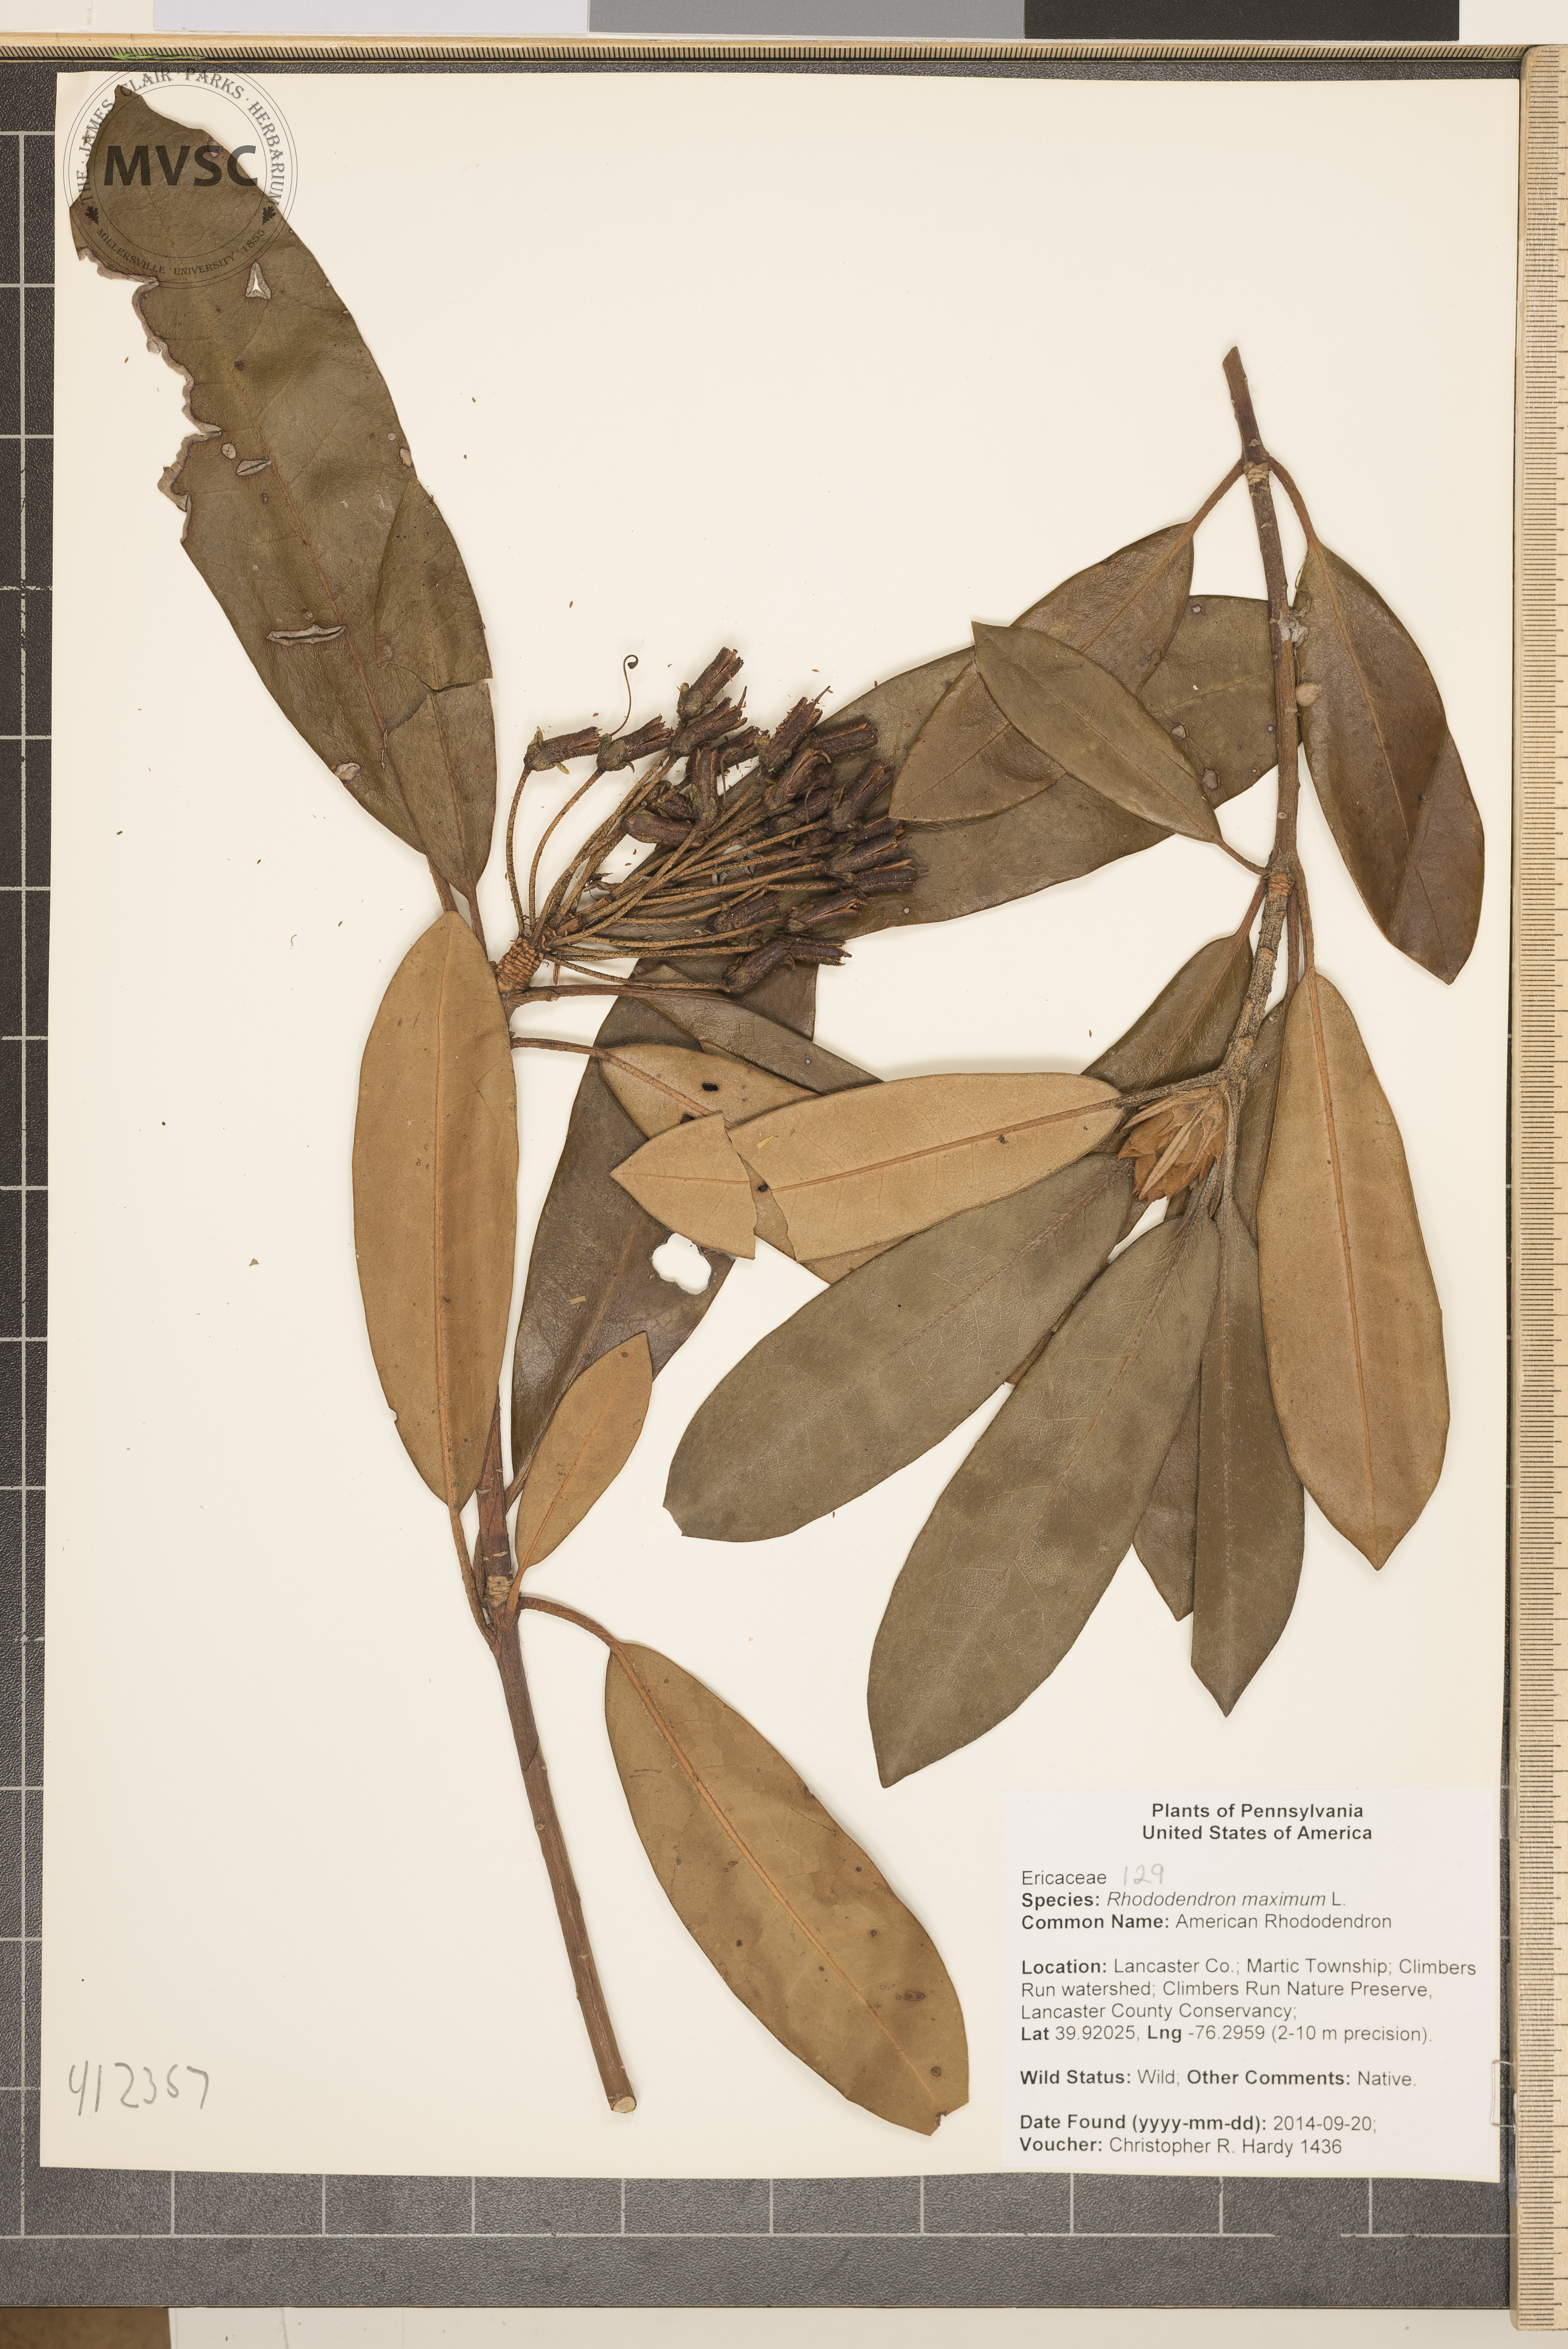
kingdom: Plantae
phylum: Tracheophyta
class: Magnoliopsida
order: Ericales
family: Ericaceae
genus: Rhododendron
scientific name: Rhododendron maximum
